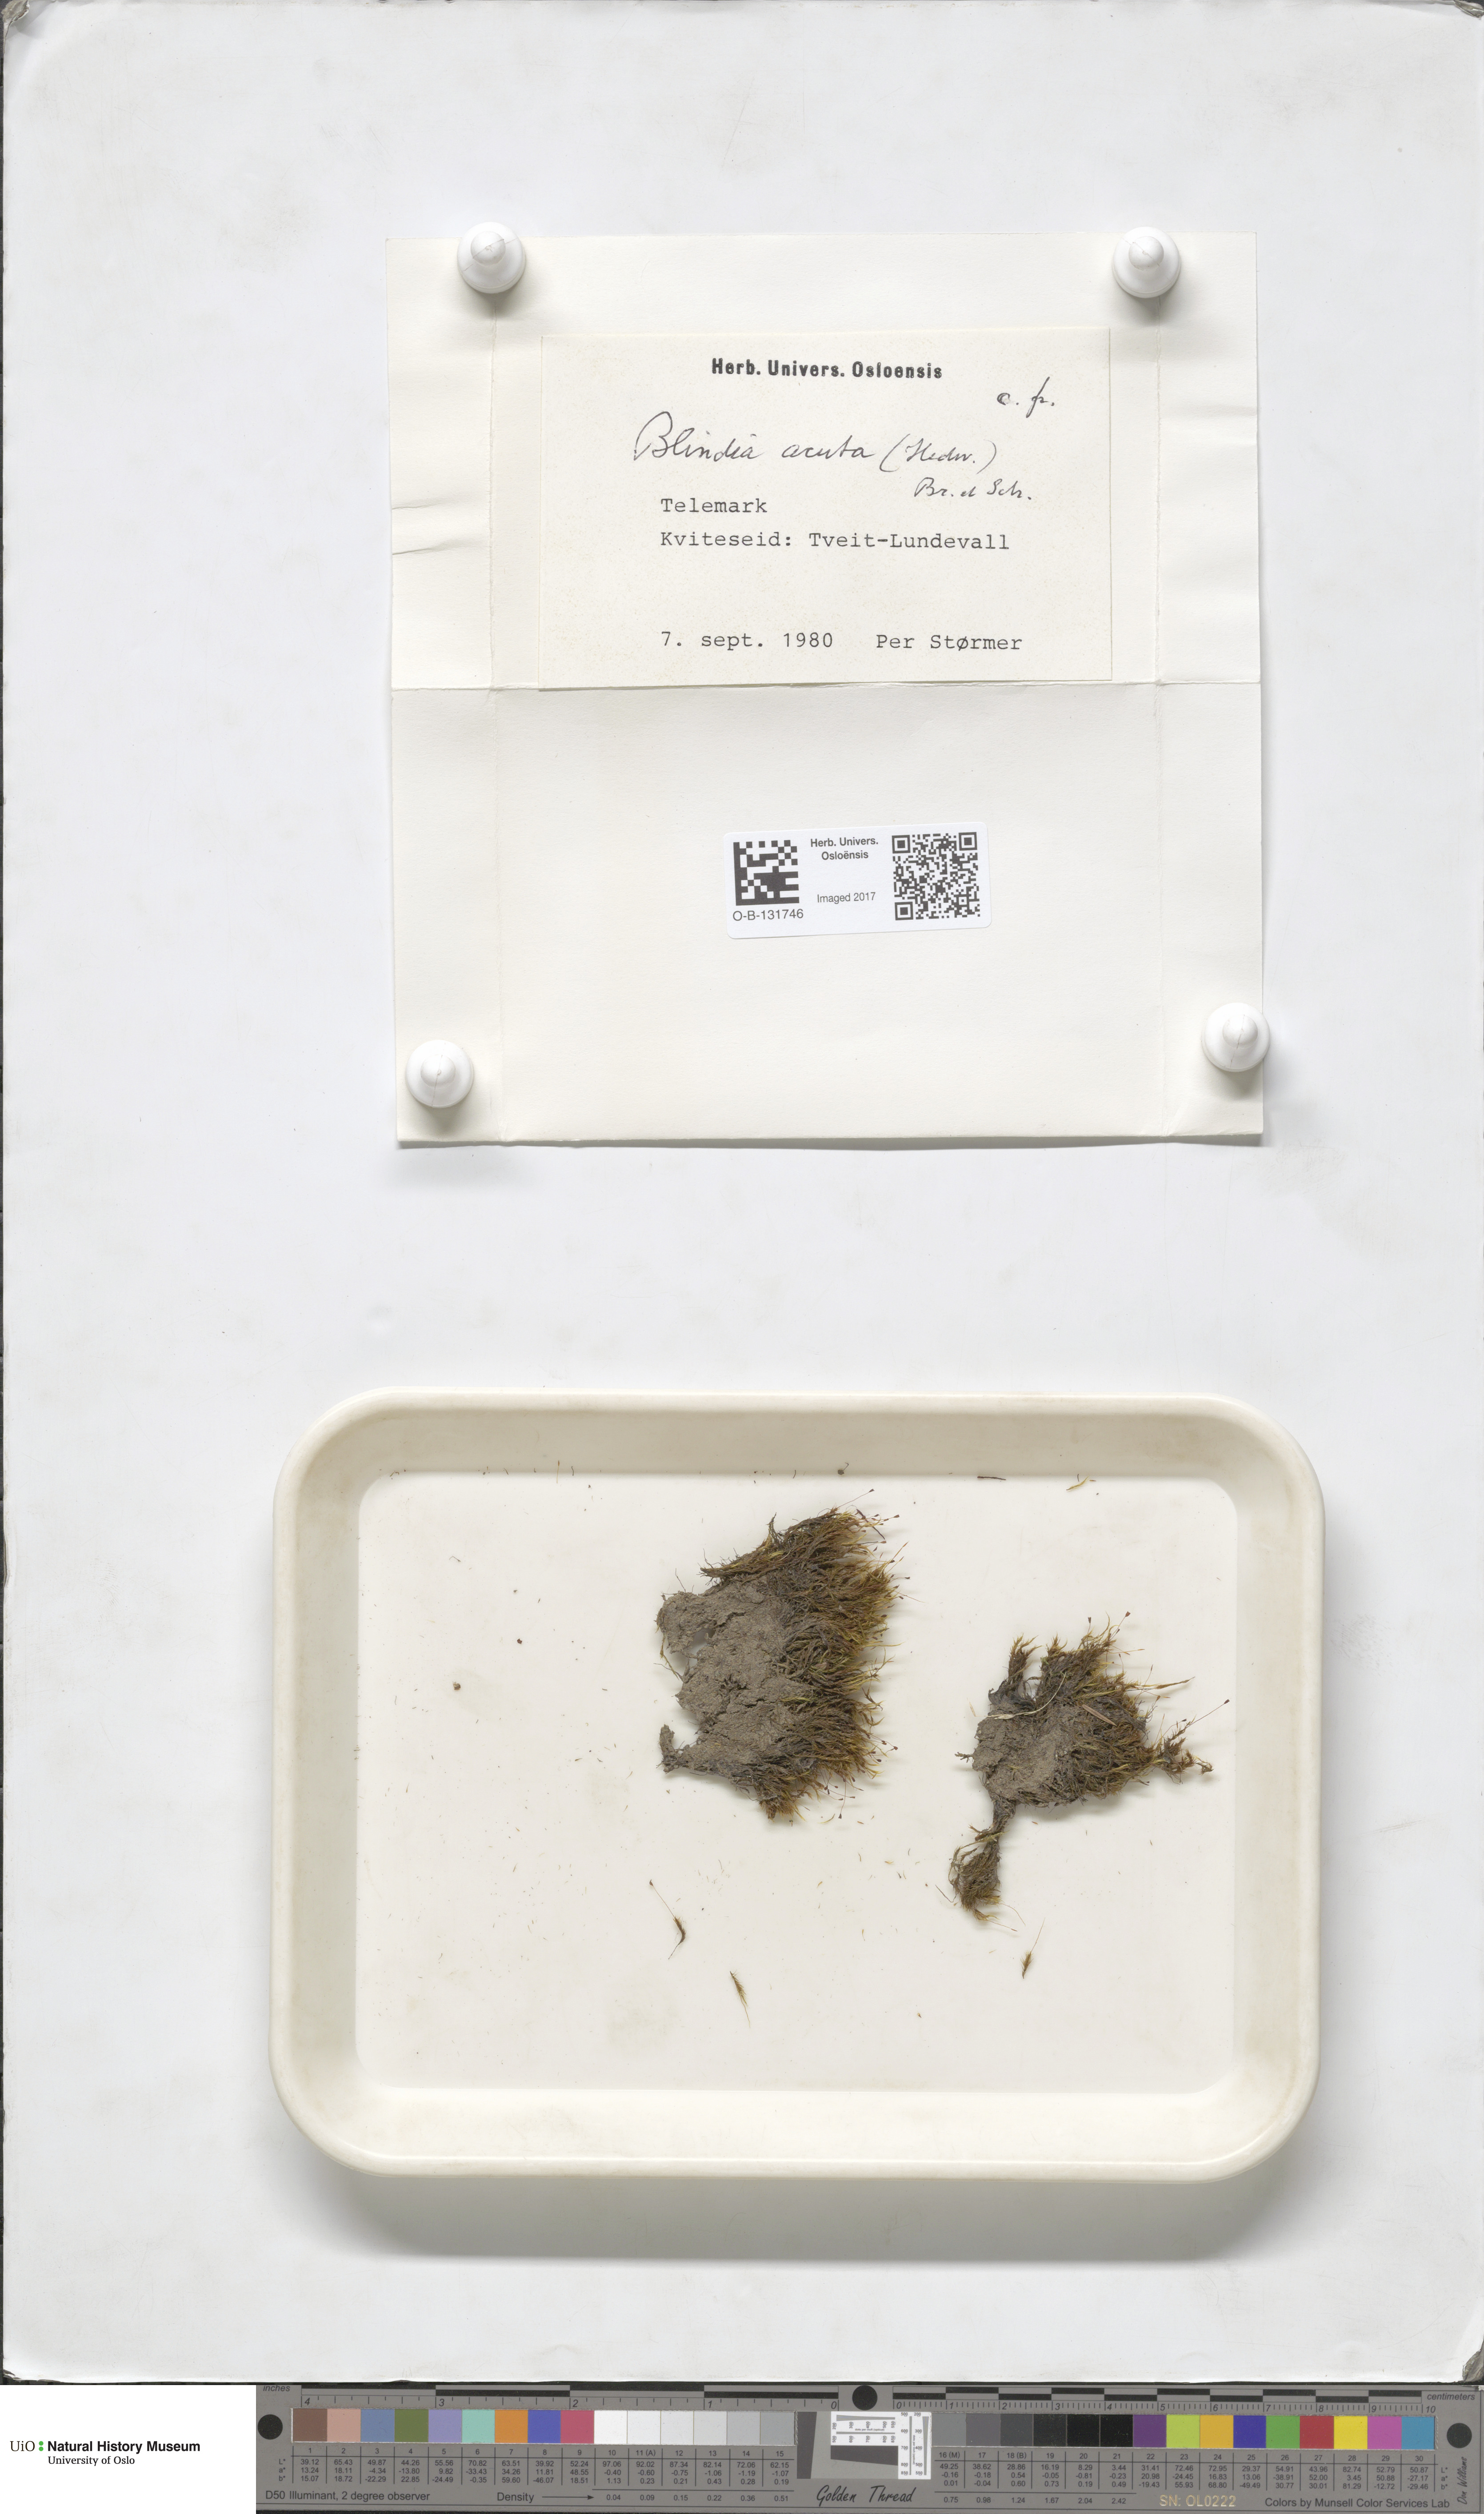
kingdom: Plantae
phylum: Bryophyta
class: Bryopsida
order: Grimmiales
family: Seligeriaceae
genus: Blindia
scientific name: Blindia acuta
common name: Sharp-leaved blind's moss
